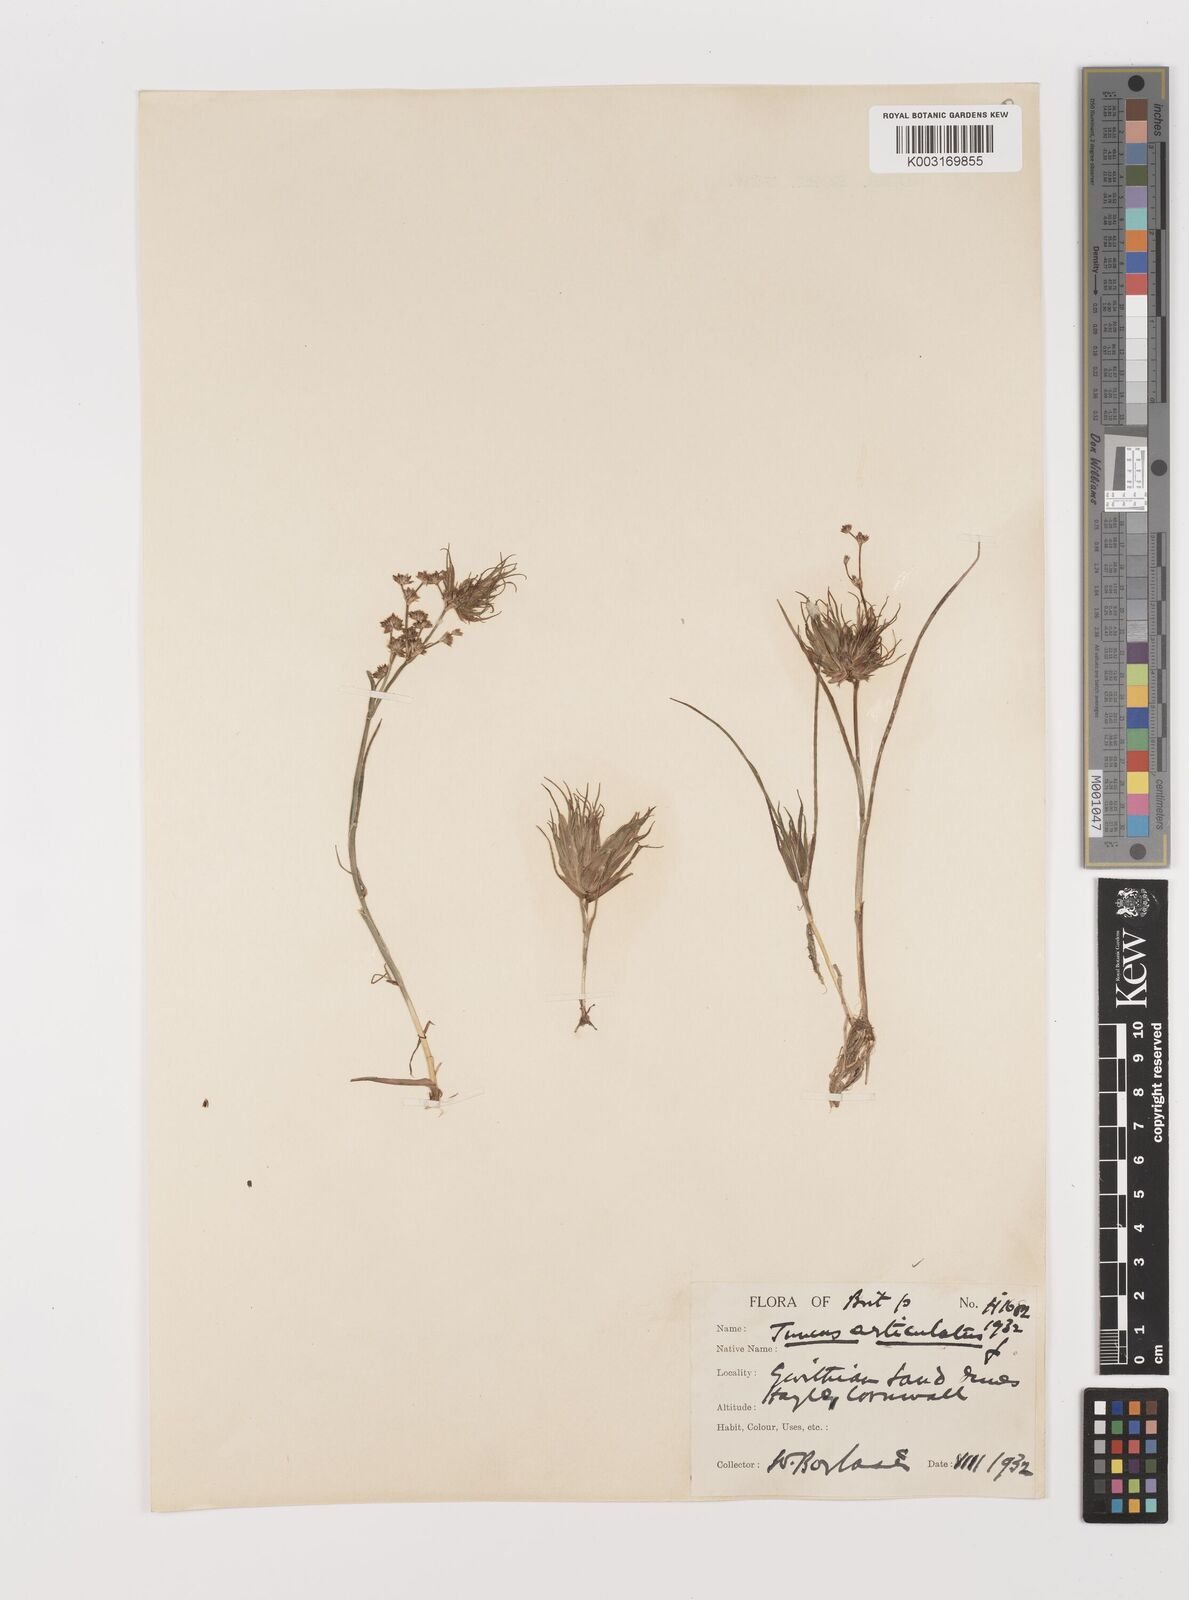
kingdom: Plantae
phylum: Tracheophyta
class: Liliopsida
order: Poales
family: Juncaceae
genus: Juncus
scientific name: Juncus articulatus
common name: Jointed rush
